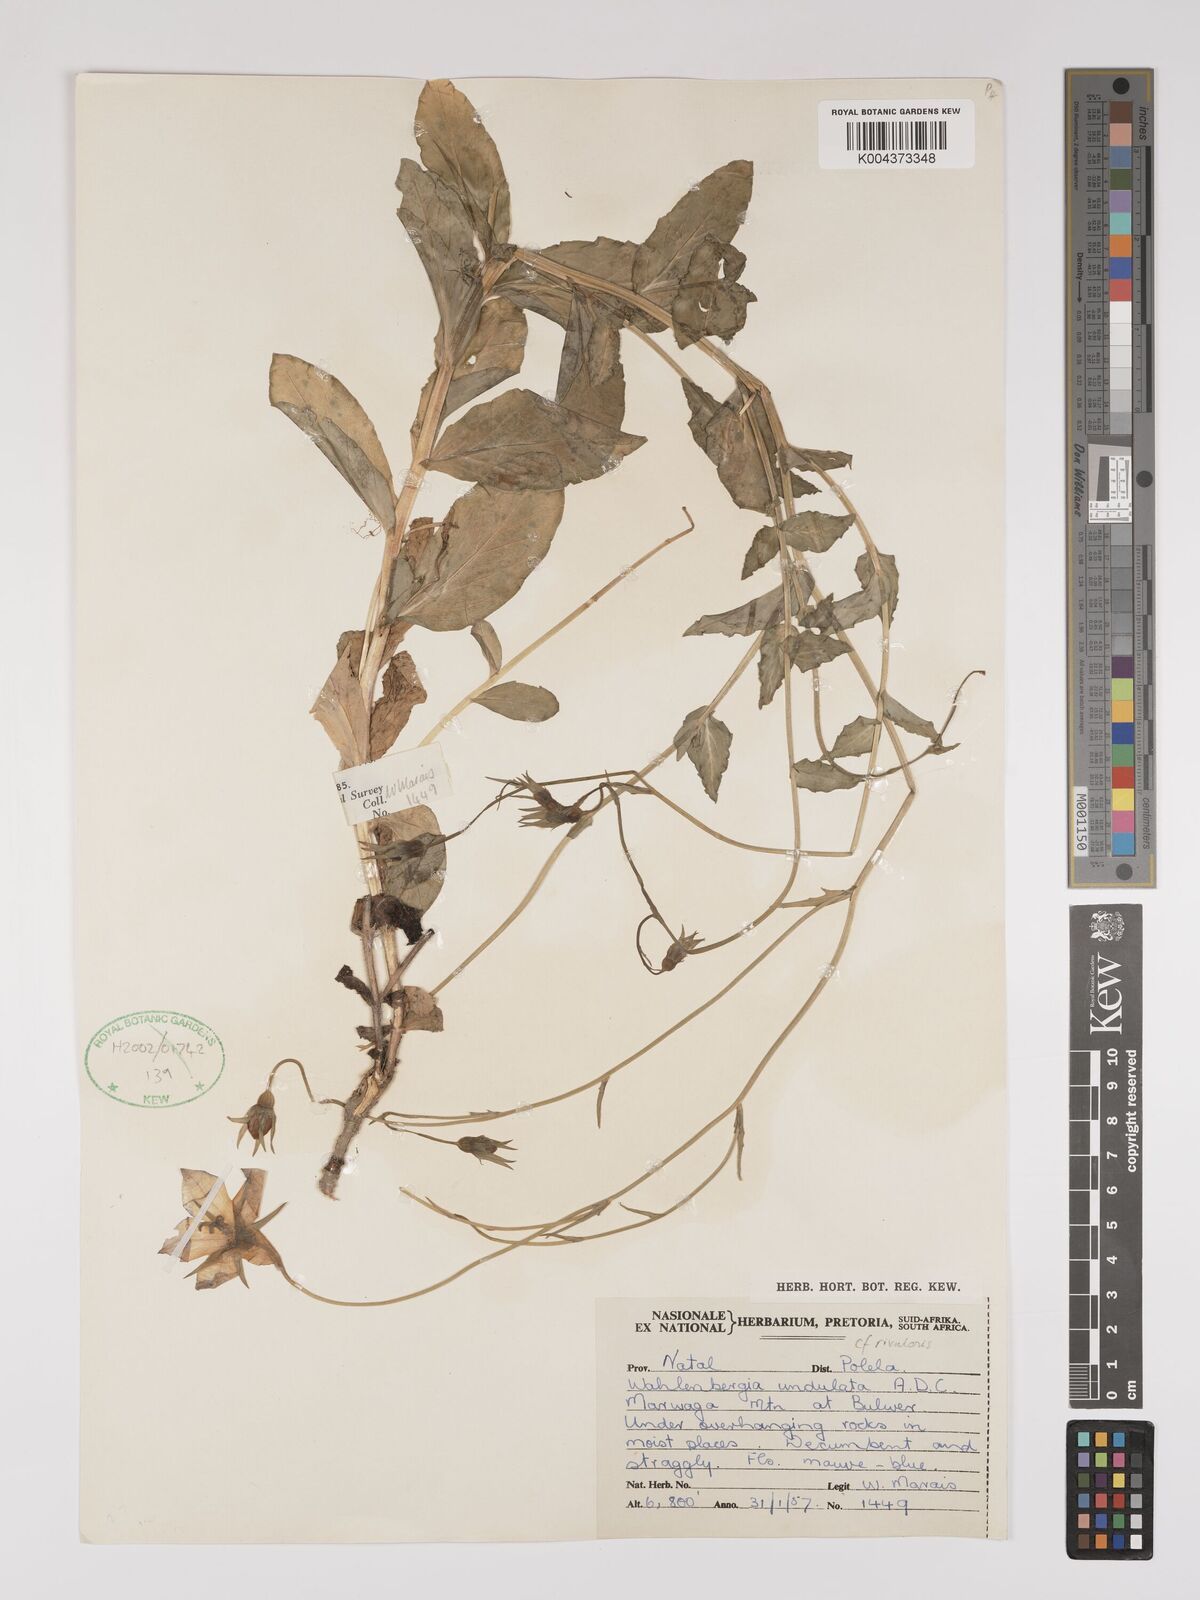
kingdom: Plantae
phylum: Tracheophyta
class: Magnoliopsida
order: Asterales
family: Campanulaceae
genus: Wahlenbergia
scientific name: Wahlenbergia undulata
